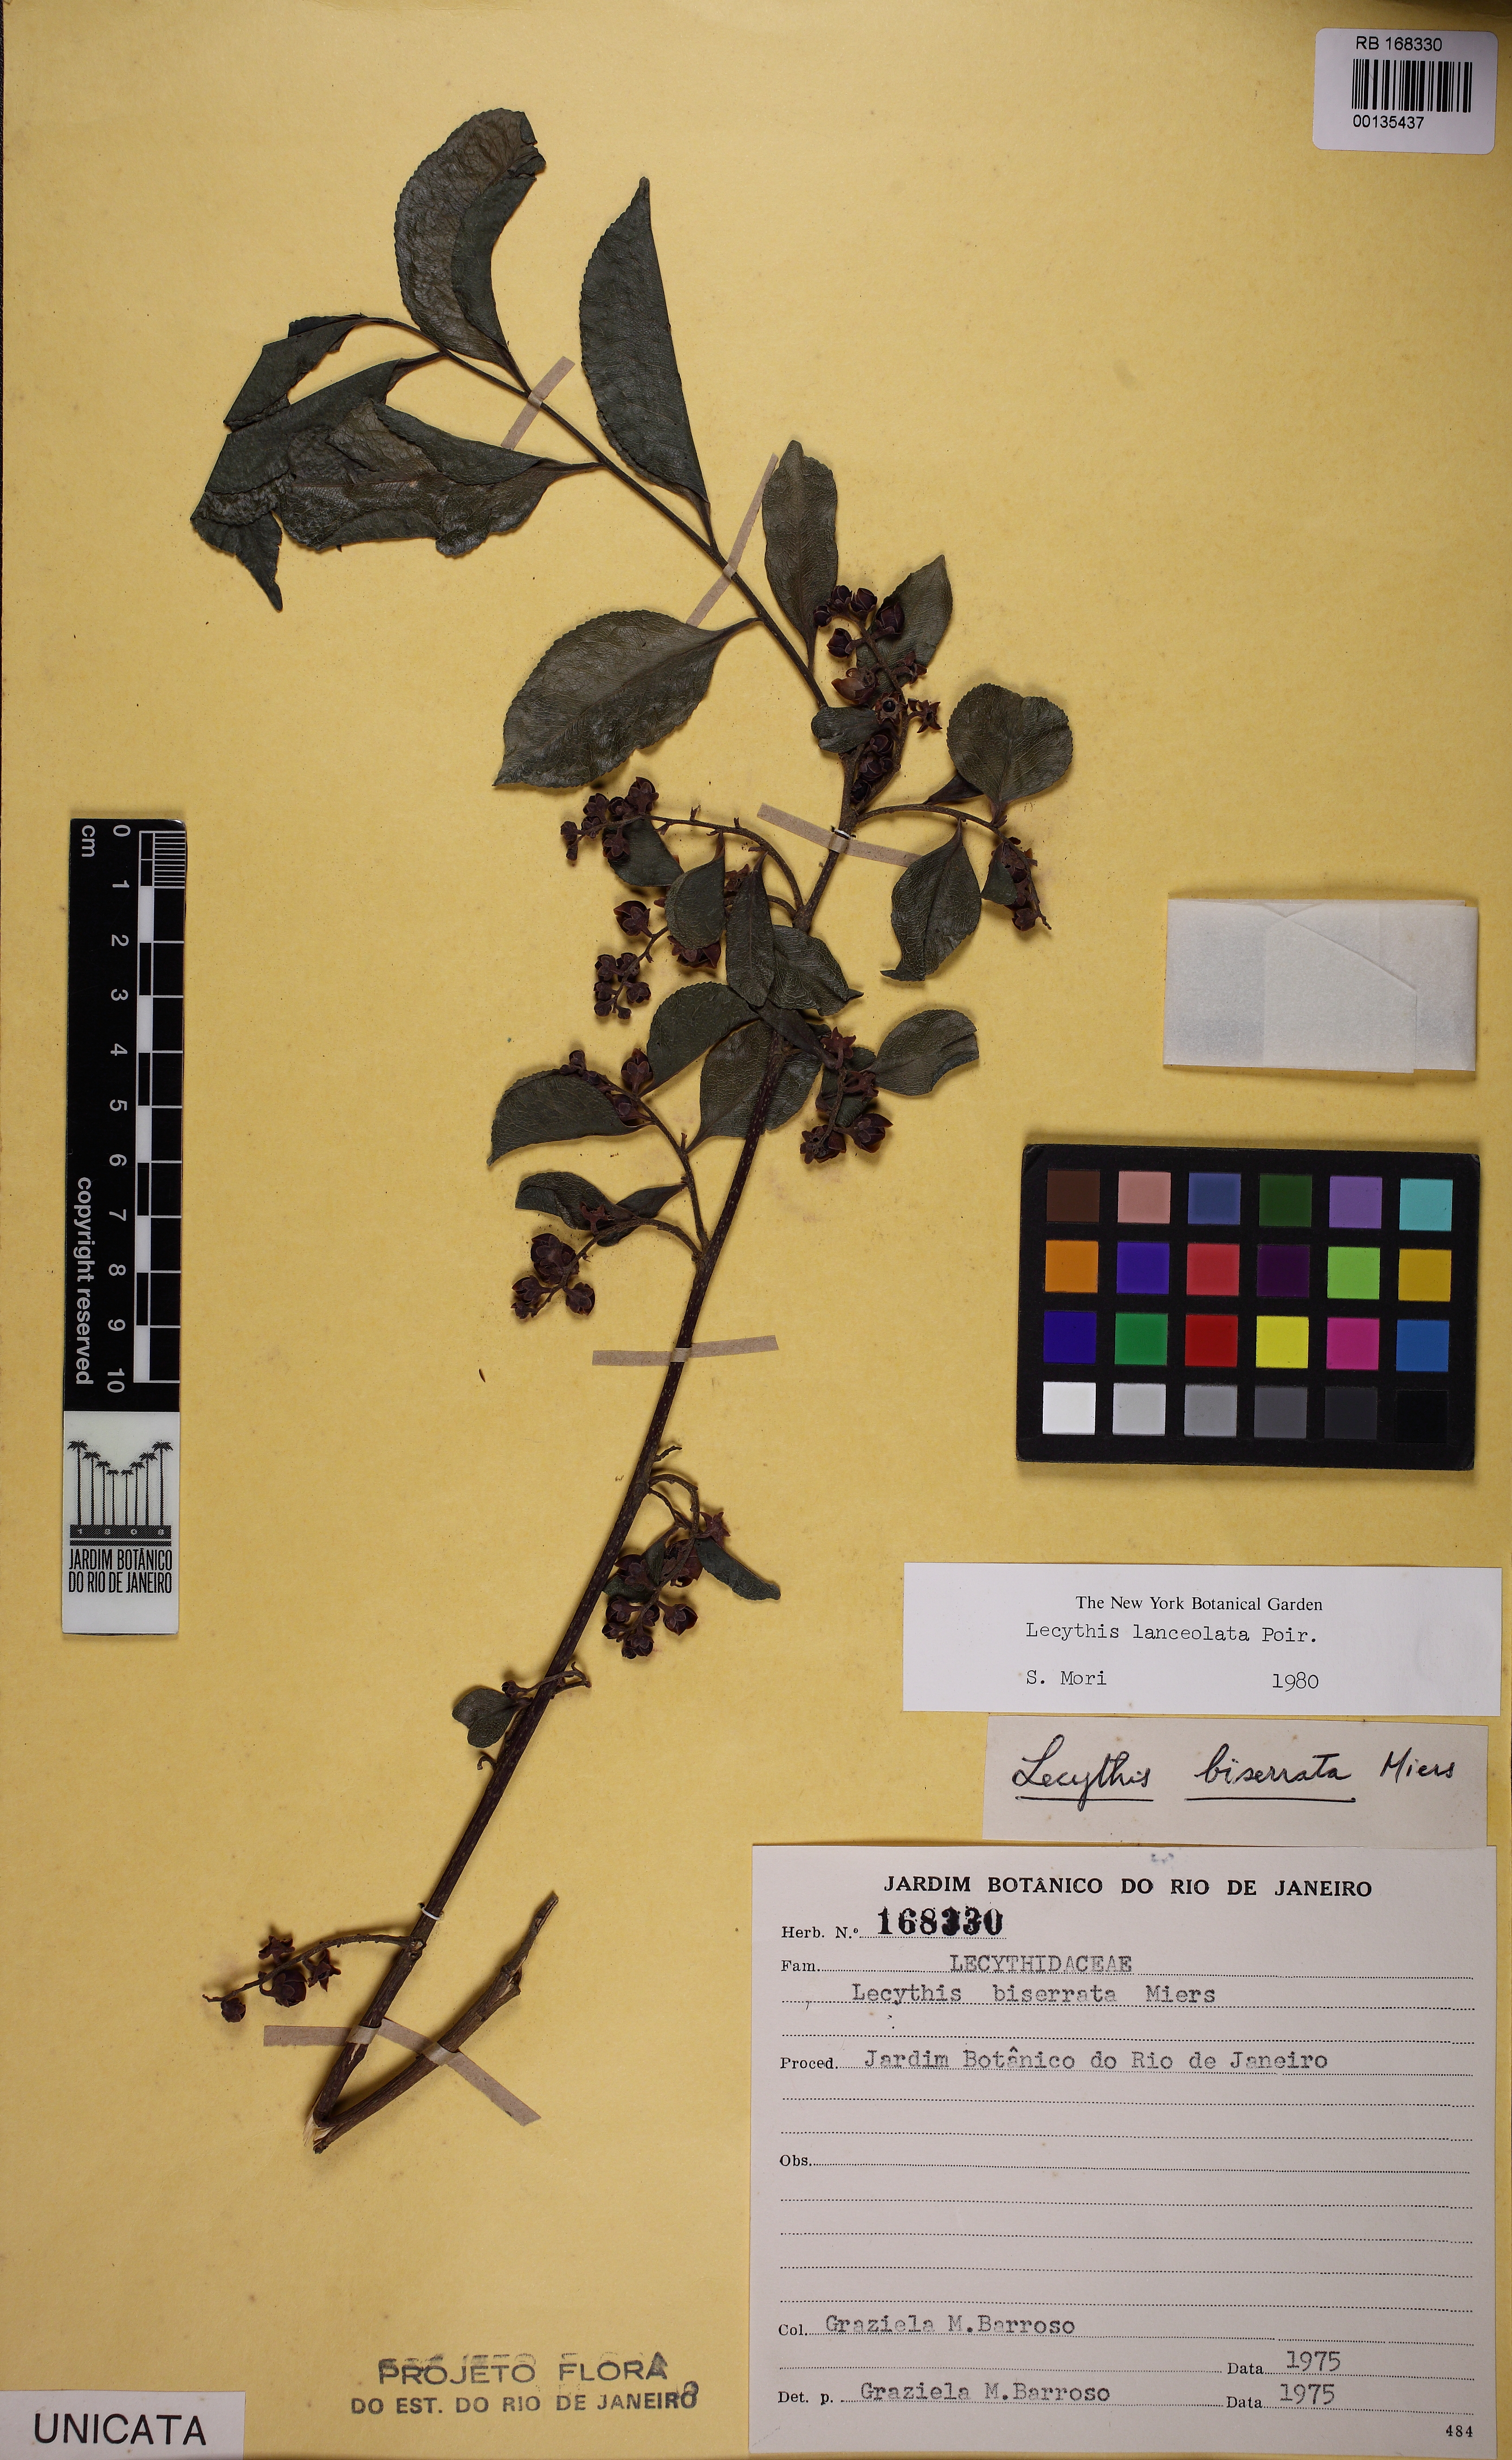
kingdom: Plantae
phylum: Tracheophyta
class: Magnoliopsida
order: Ericales
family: Lecythidaceae
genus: Lecythis
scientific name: Lecythis lanceolata
